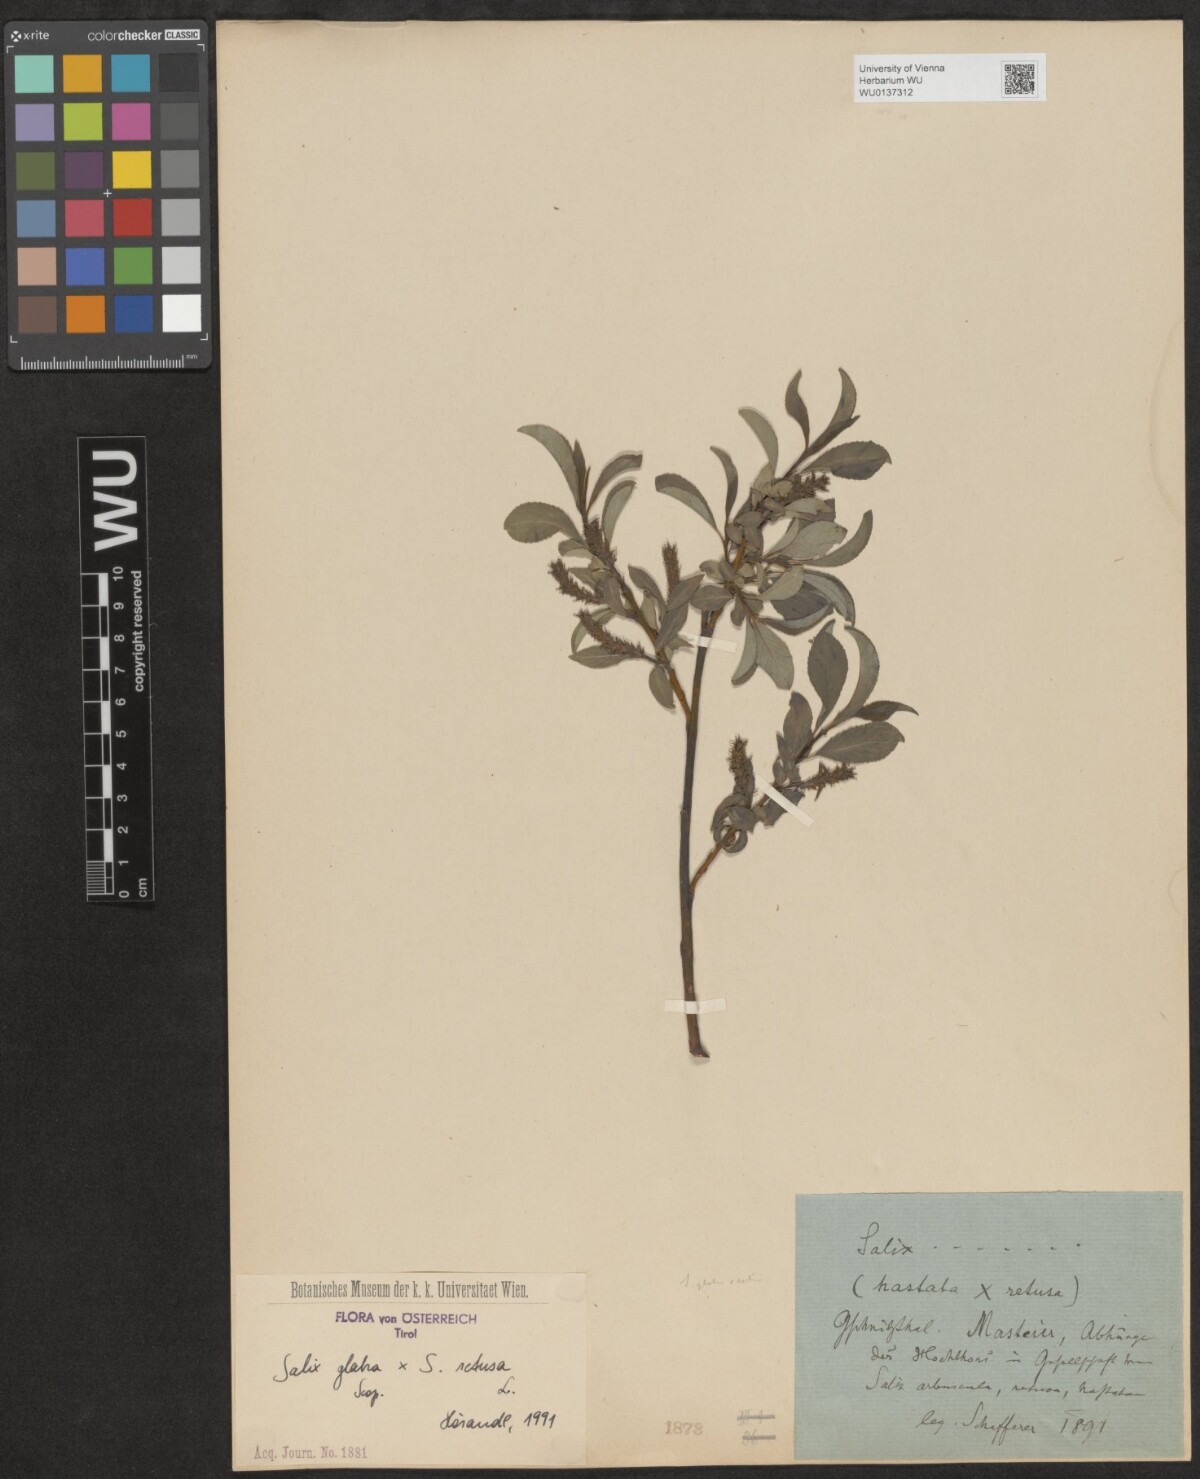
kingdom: Plantae
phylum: Tracheophyta
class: Magnoliopsida
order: Malpighiales
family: Salicaceae
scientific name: Salicaceae
